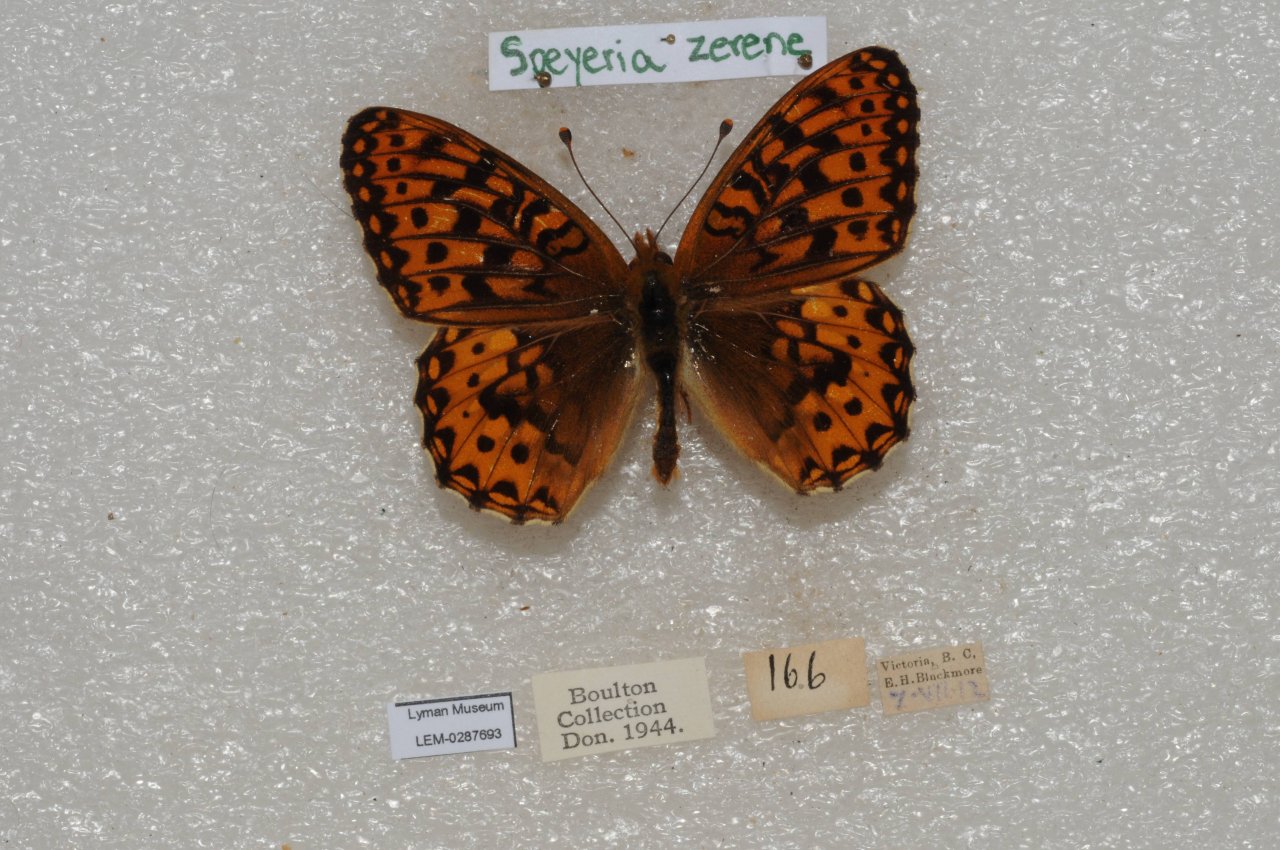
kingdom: Animalia
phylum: Arthropoda
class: Insecta
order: Lepidoptera
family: Nymphalidae
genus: Speyeria
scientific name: Speyeria zerene
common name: Zerene Fritillary
